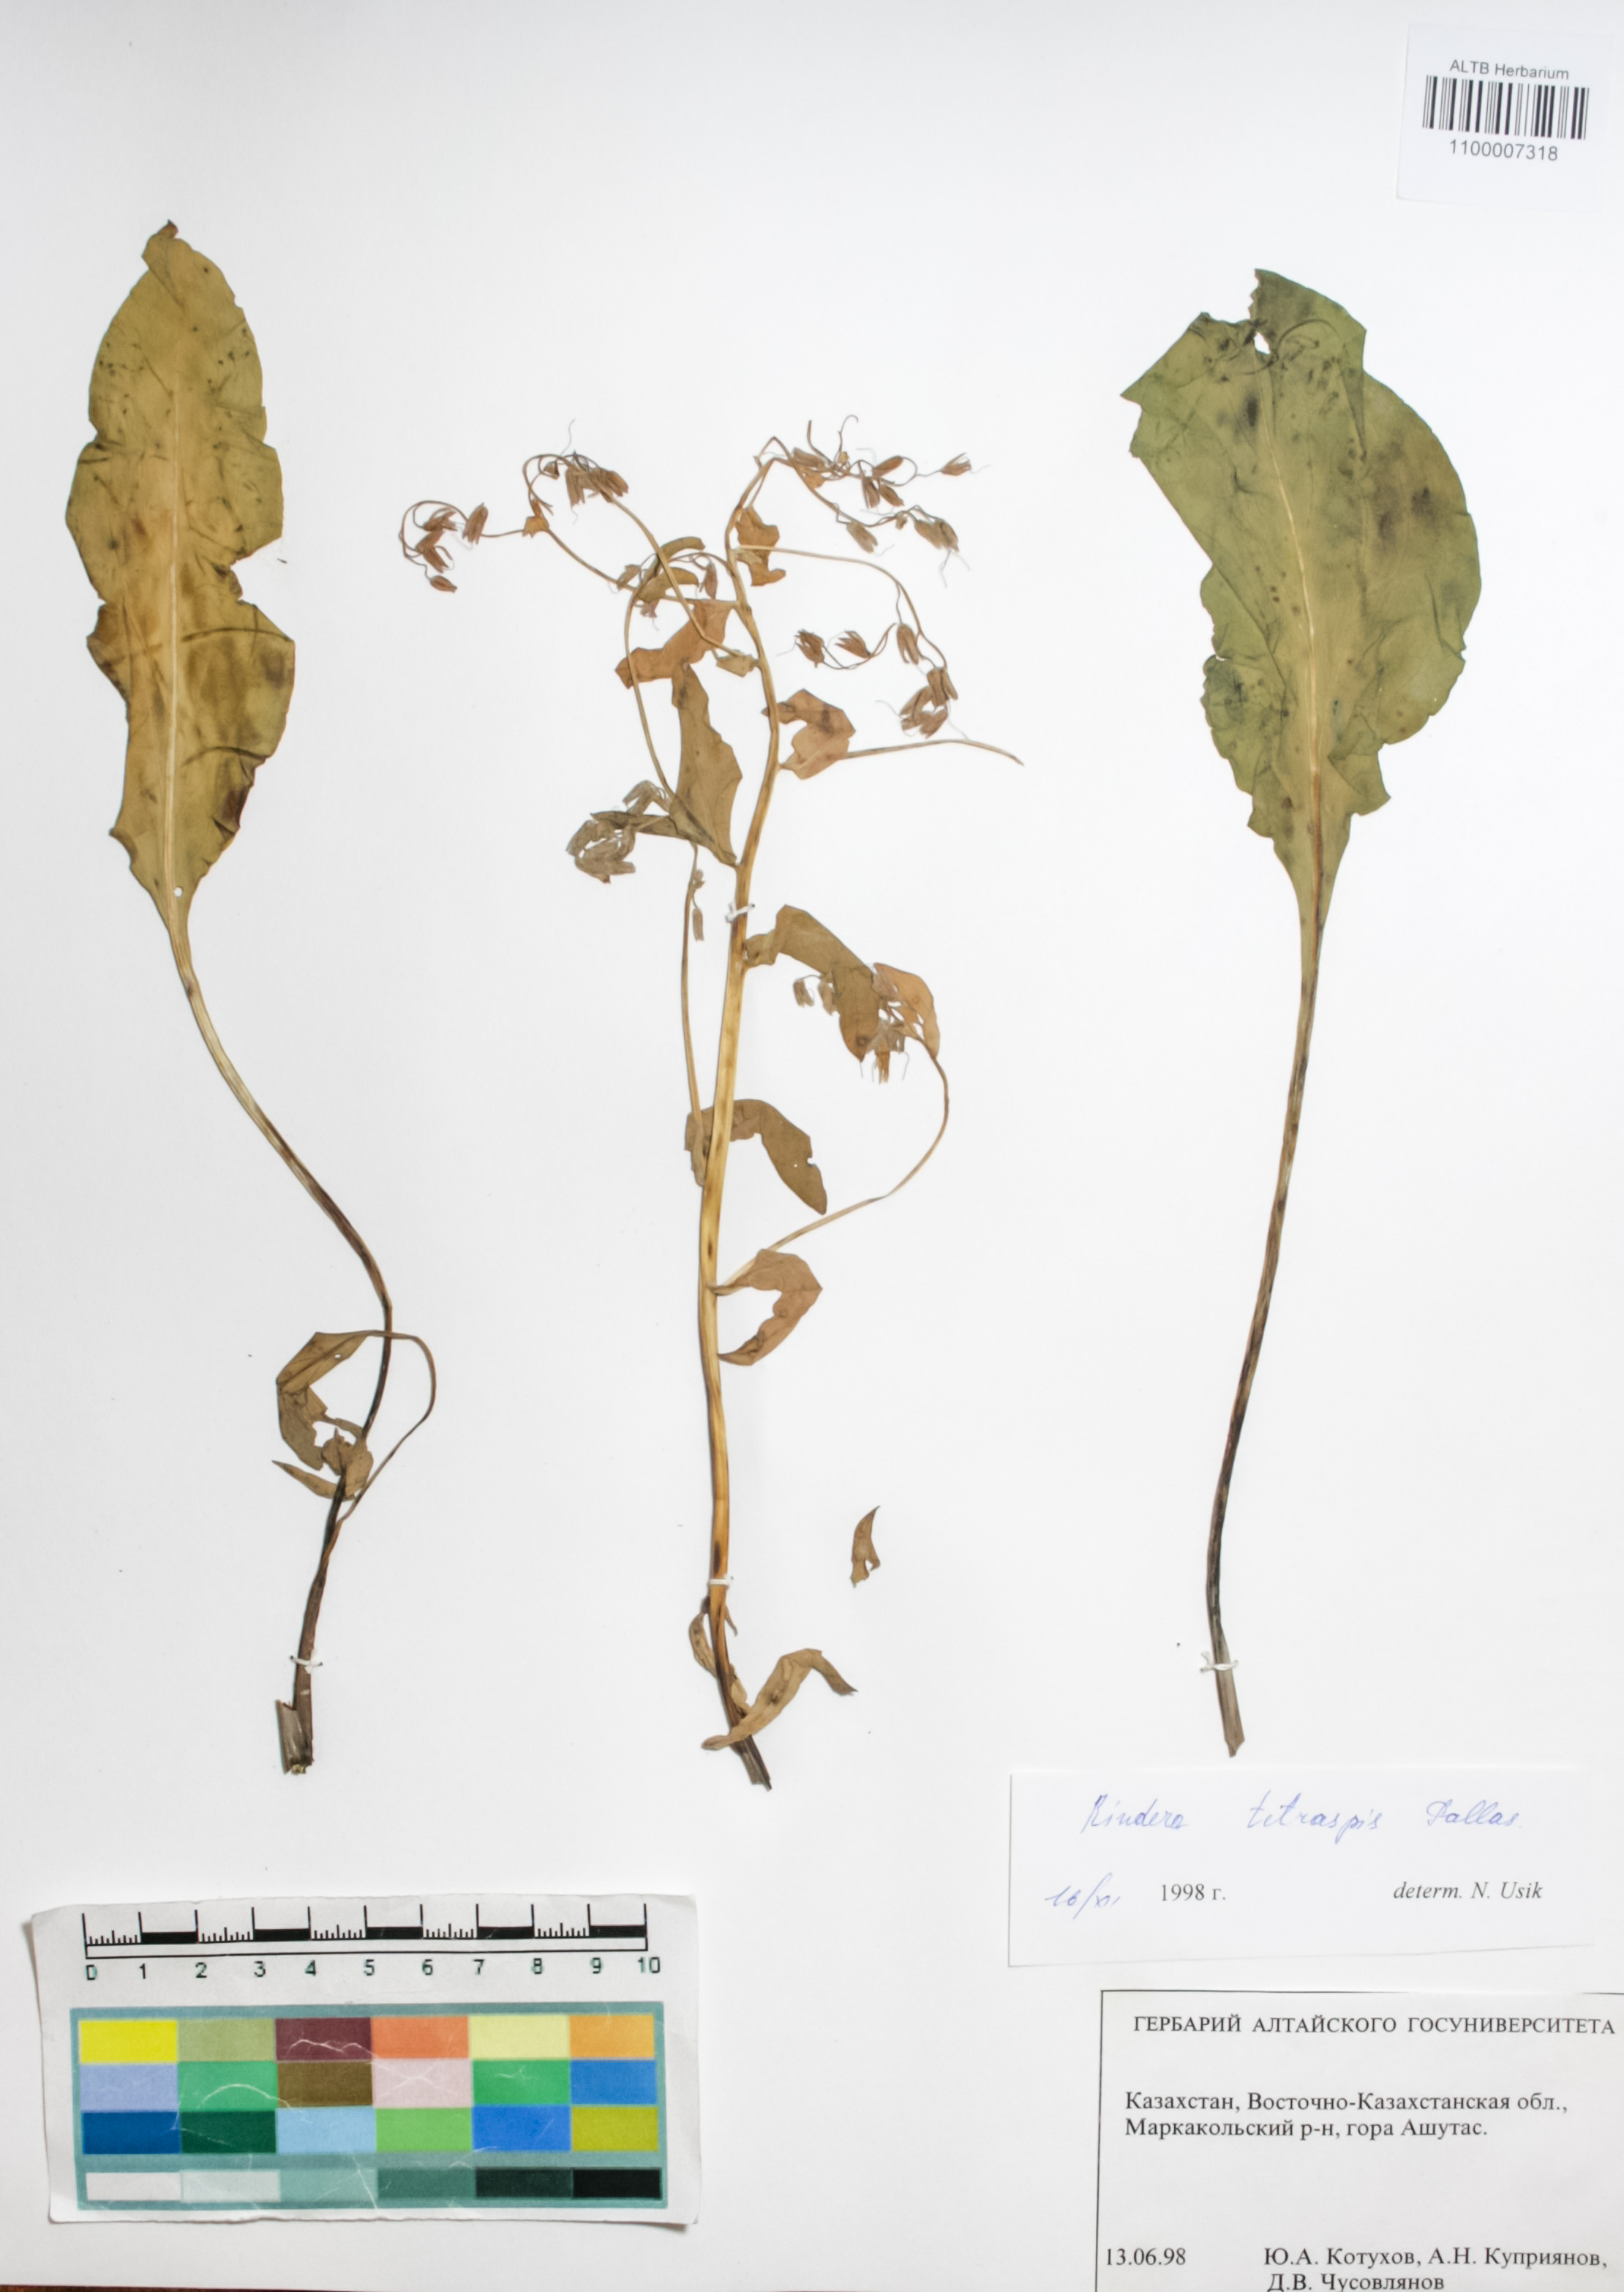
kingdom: Plantae
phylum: Tracheophyta
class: Magnoliopsida
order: Boraginales
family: Boraginaceae
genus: Rindera
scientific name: Rindera tetraspis
